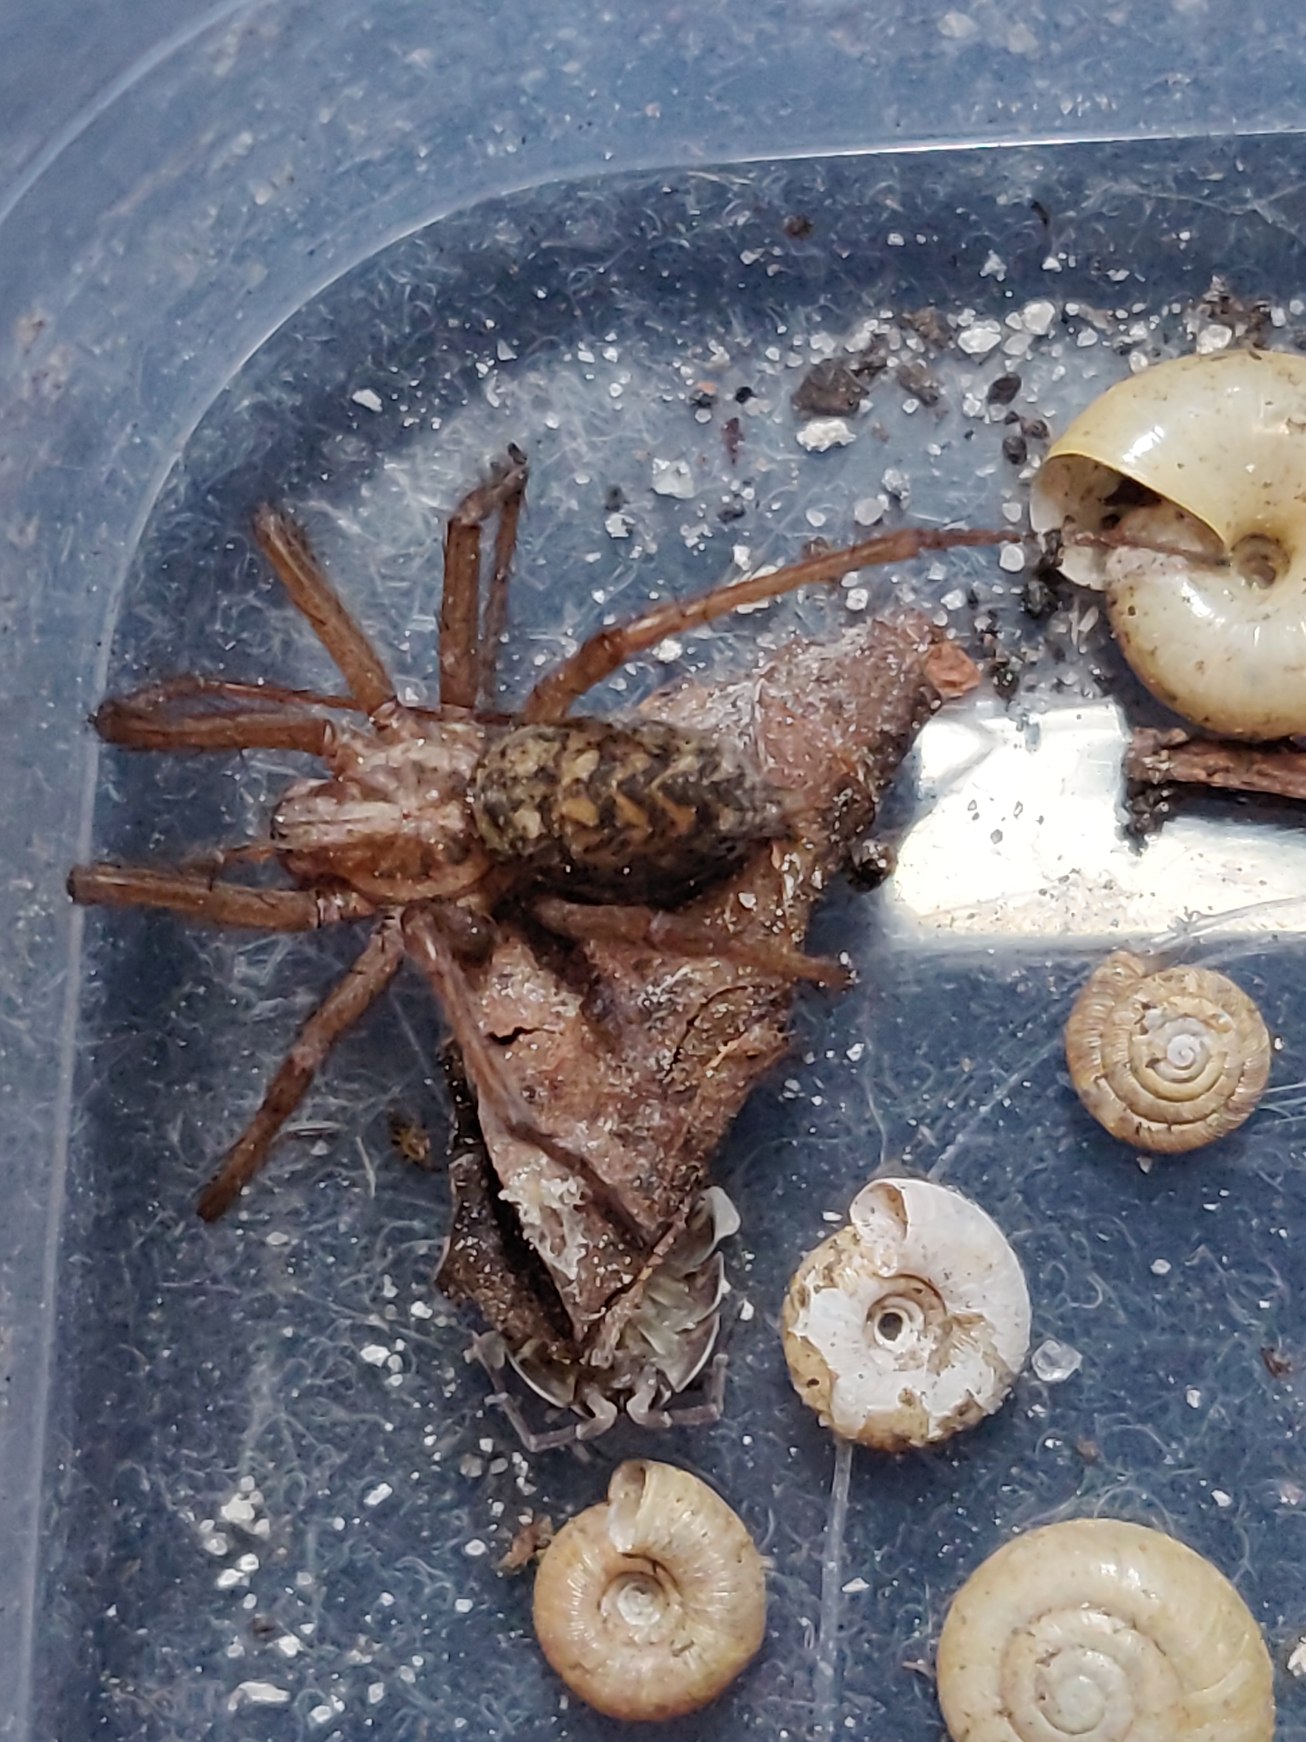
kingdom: Animalia
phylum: Arthropoda
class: Arachnida
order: Araneae
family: Agelenidae
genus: Eratigena
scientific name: Eratigena atrica
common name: Stor husedderkop
